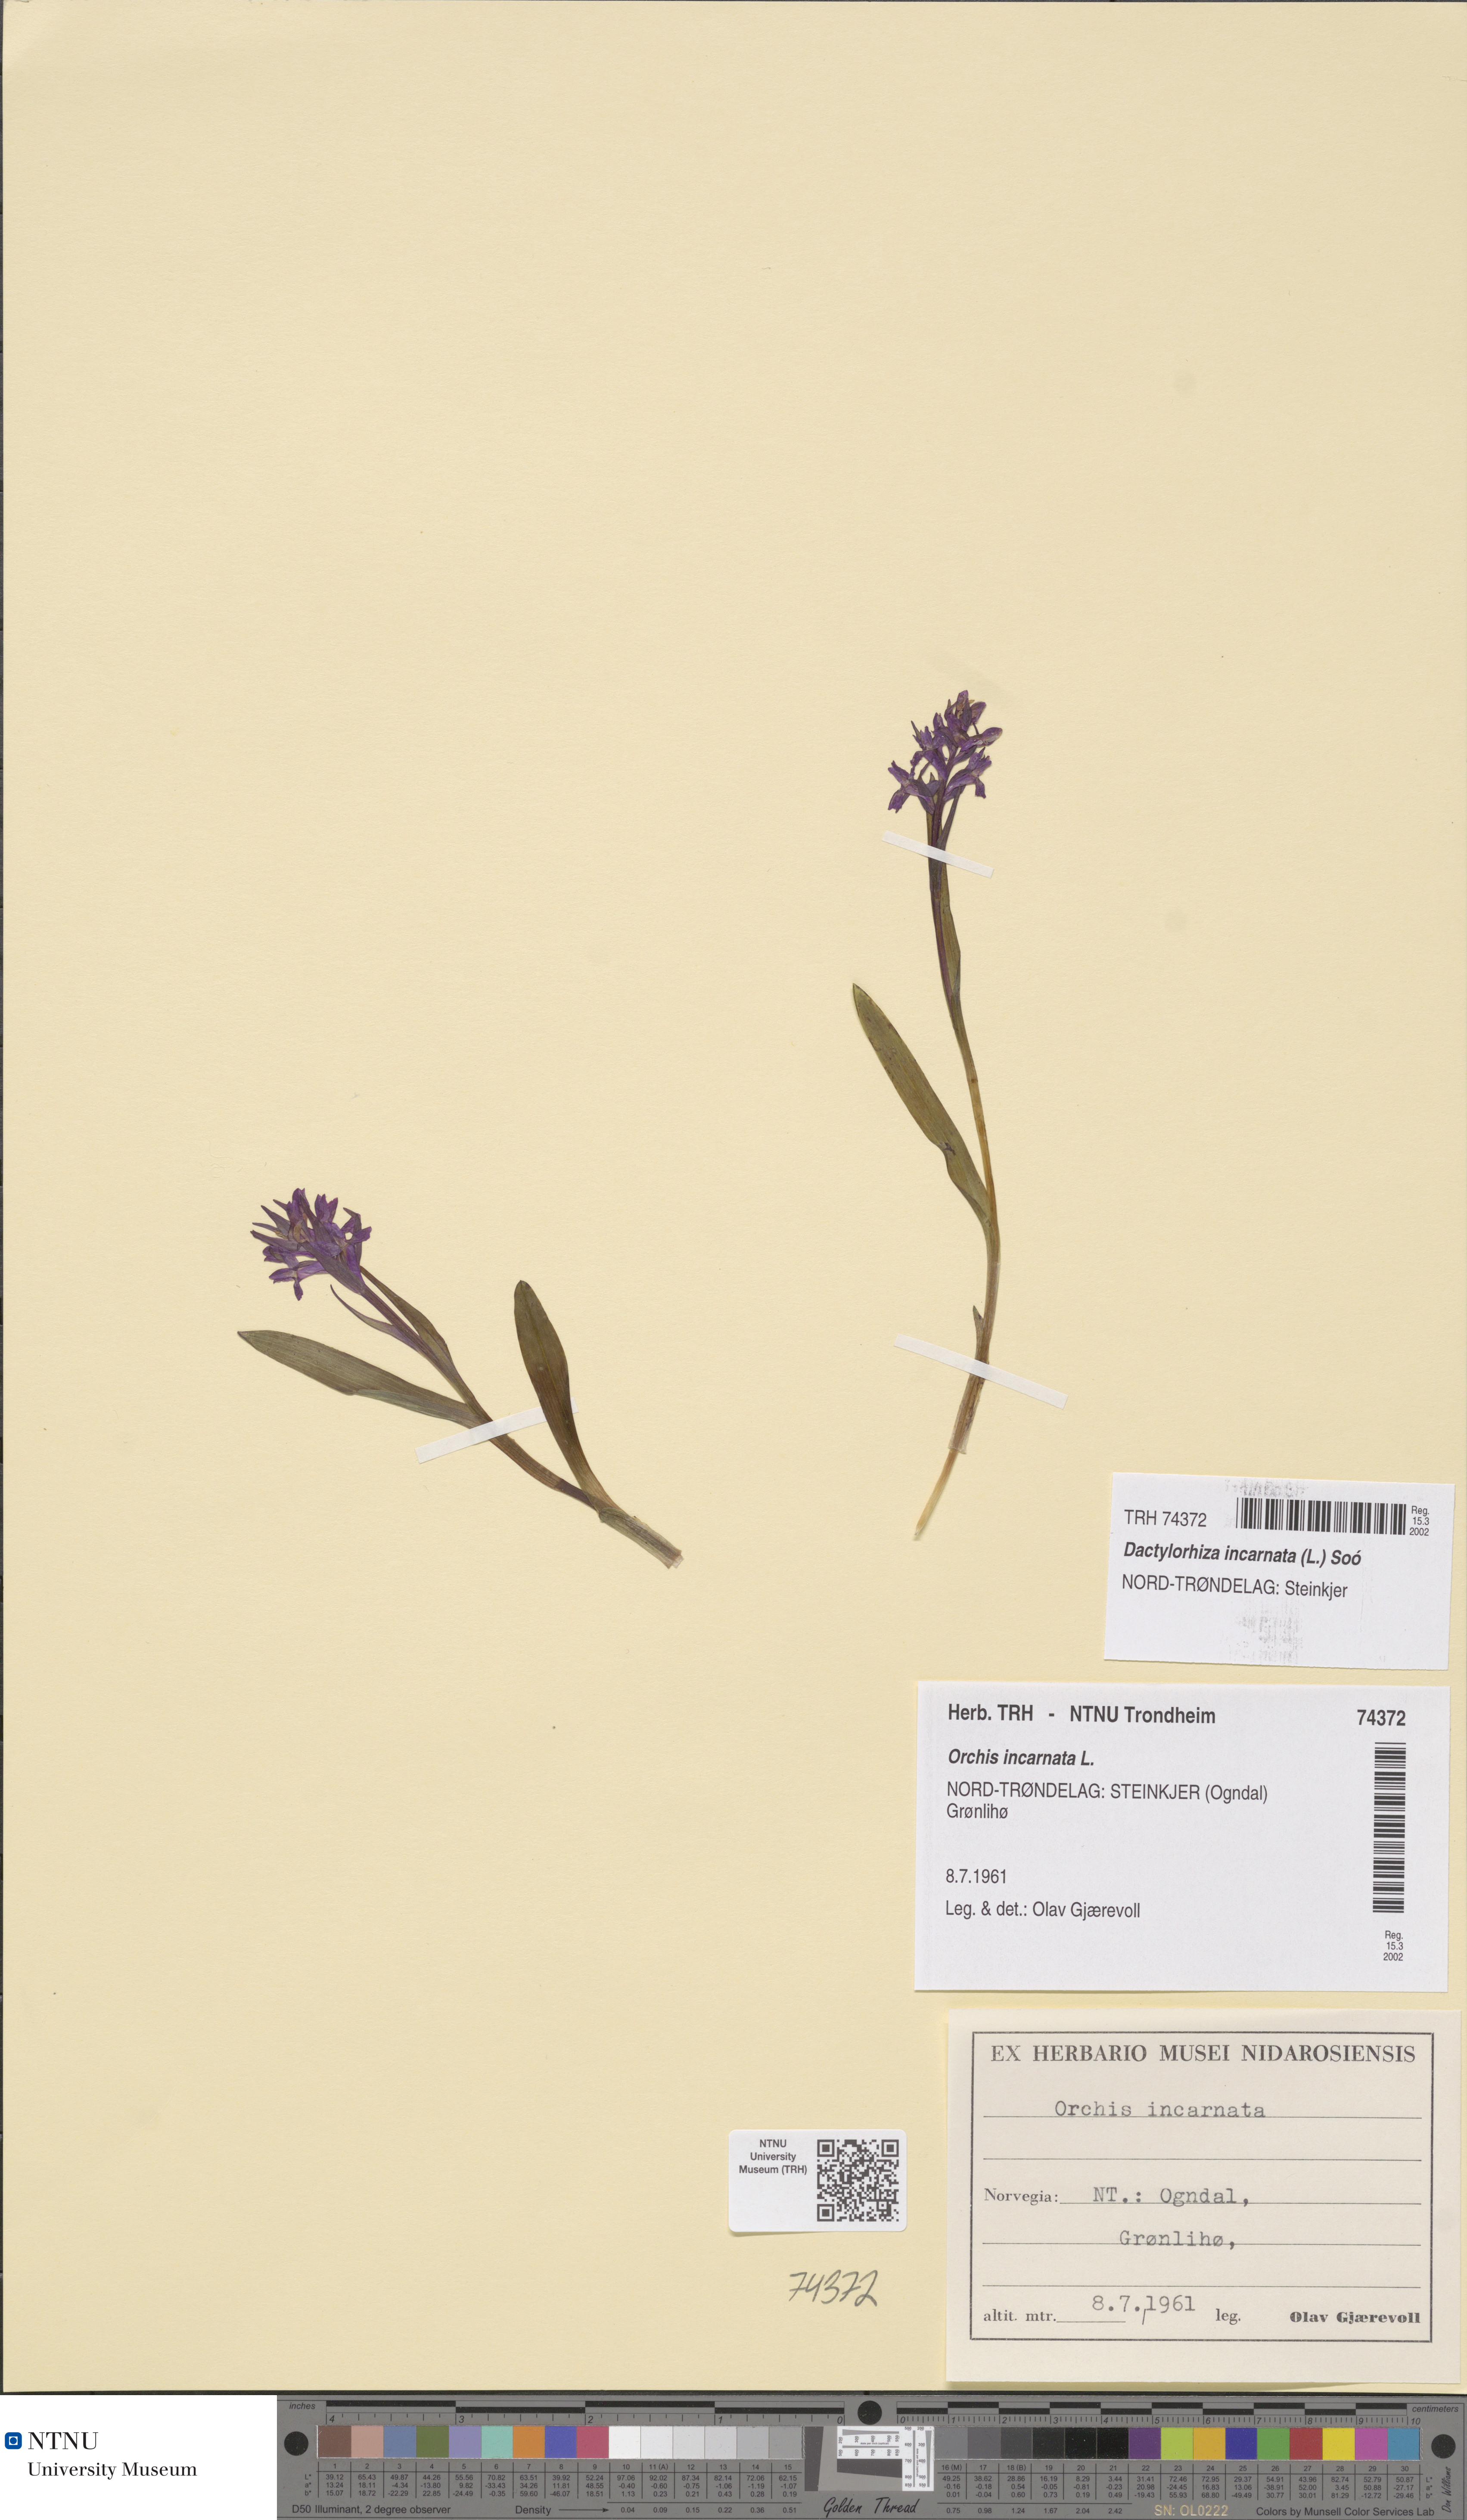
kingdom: Plantae
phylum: Tracheophyta
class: Liliopsida
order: Asparagales
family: Orchidaceae
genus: Dactylorhiza
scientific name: Dactylorhiza incarnata
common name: Early marsh-orchid
